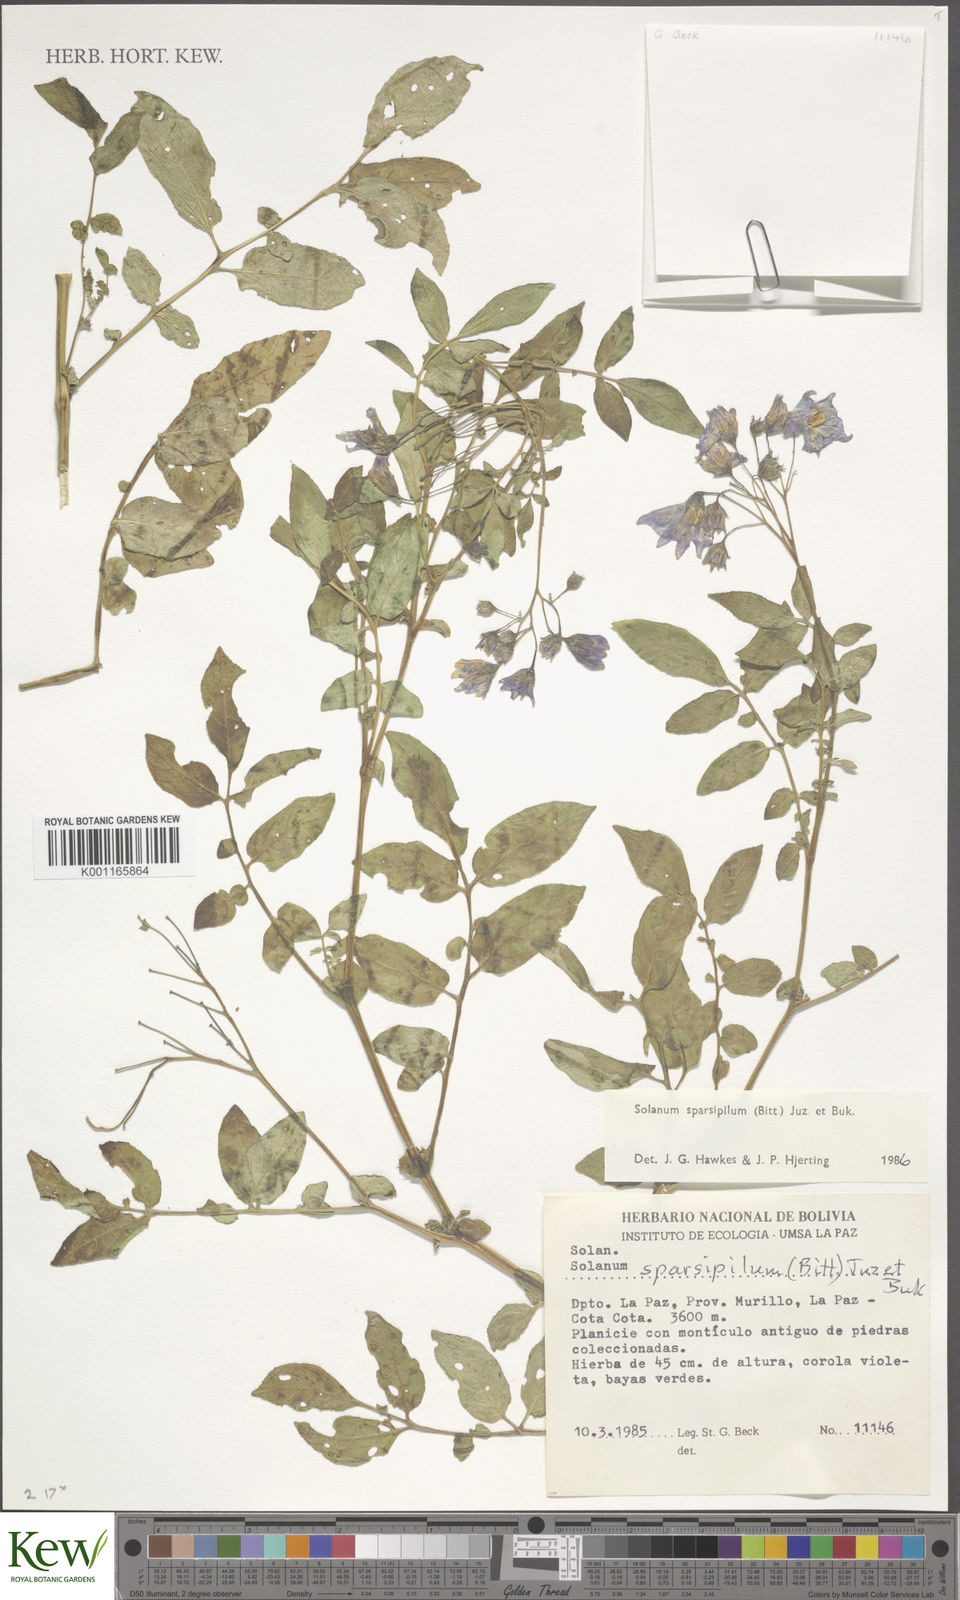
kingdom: Plantae
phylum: Tracheophyta
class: Magnoliopsida
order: Solanales
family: Solanaceae
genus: Solanum
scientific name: Solanum brevicaule
